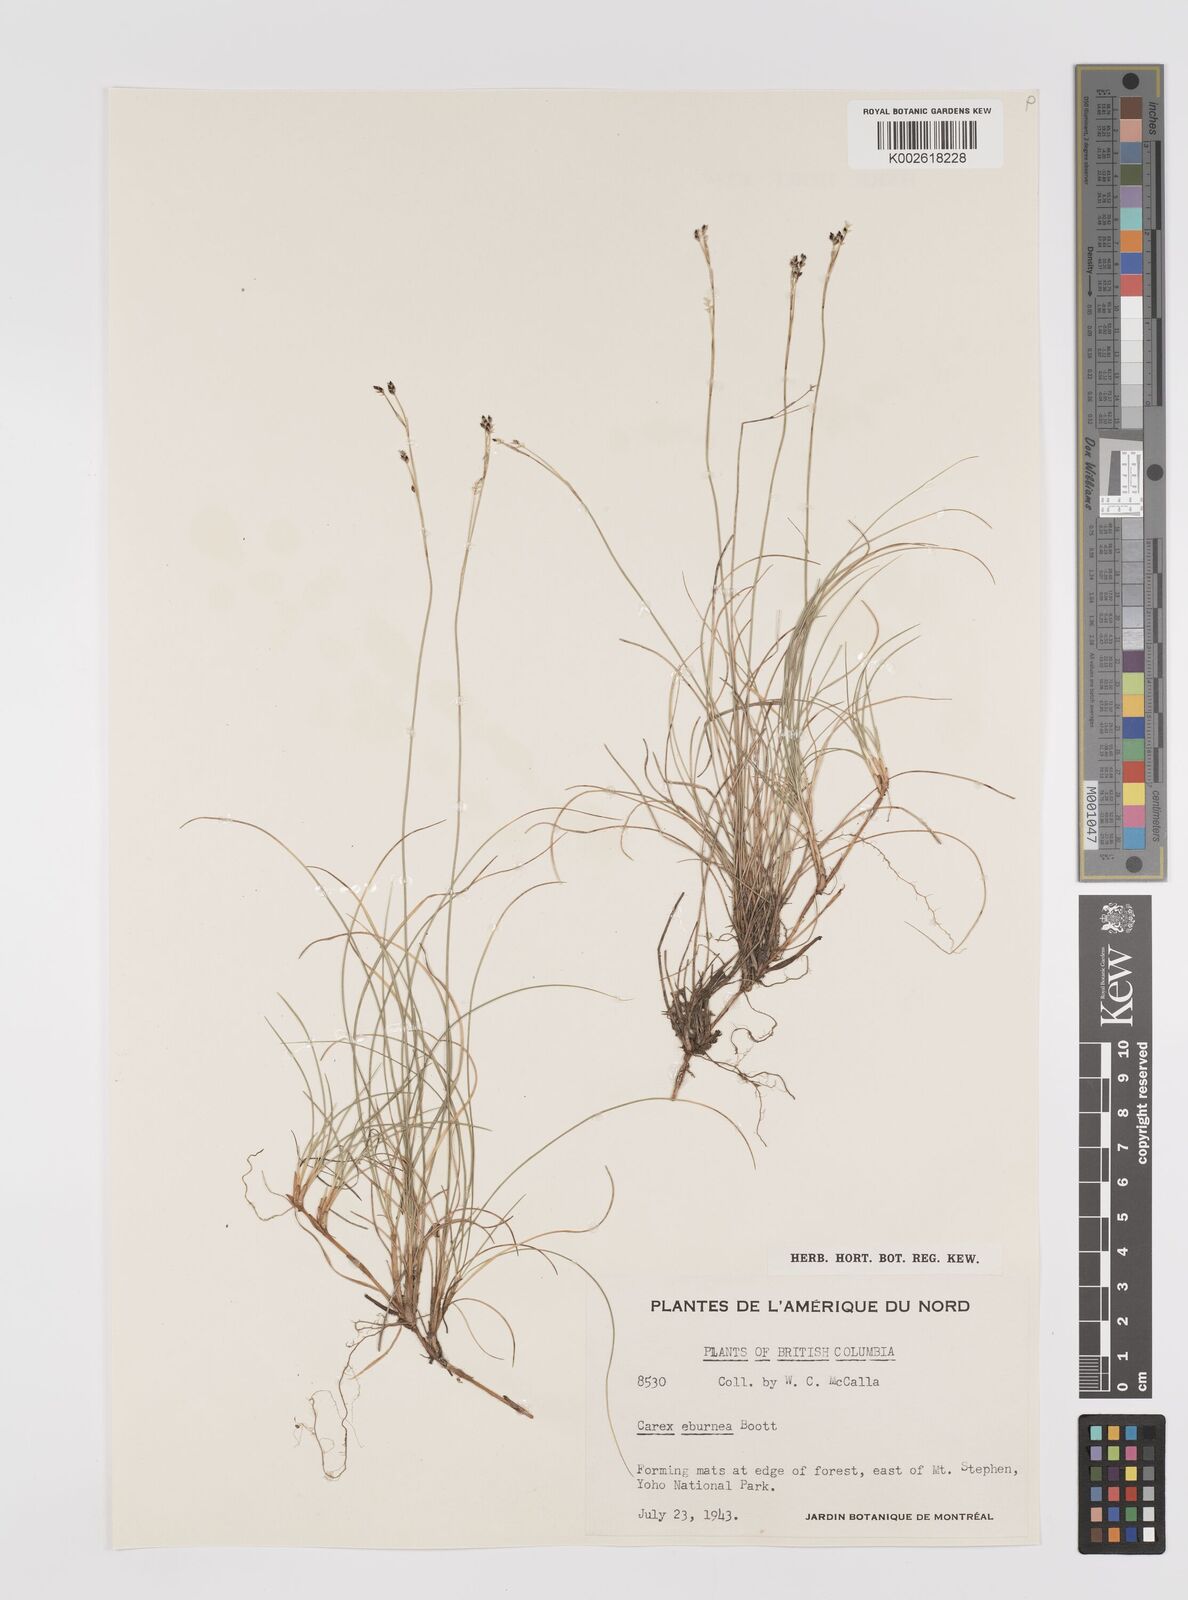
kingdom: Plantae
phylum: Tracheophyta
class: Liliopsida
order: Poales
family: Cyperaceae
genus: Carex
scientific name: Carex eburnea
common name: Bristle-leaved sedge
